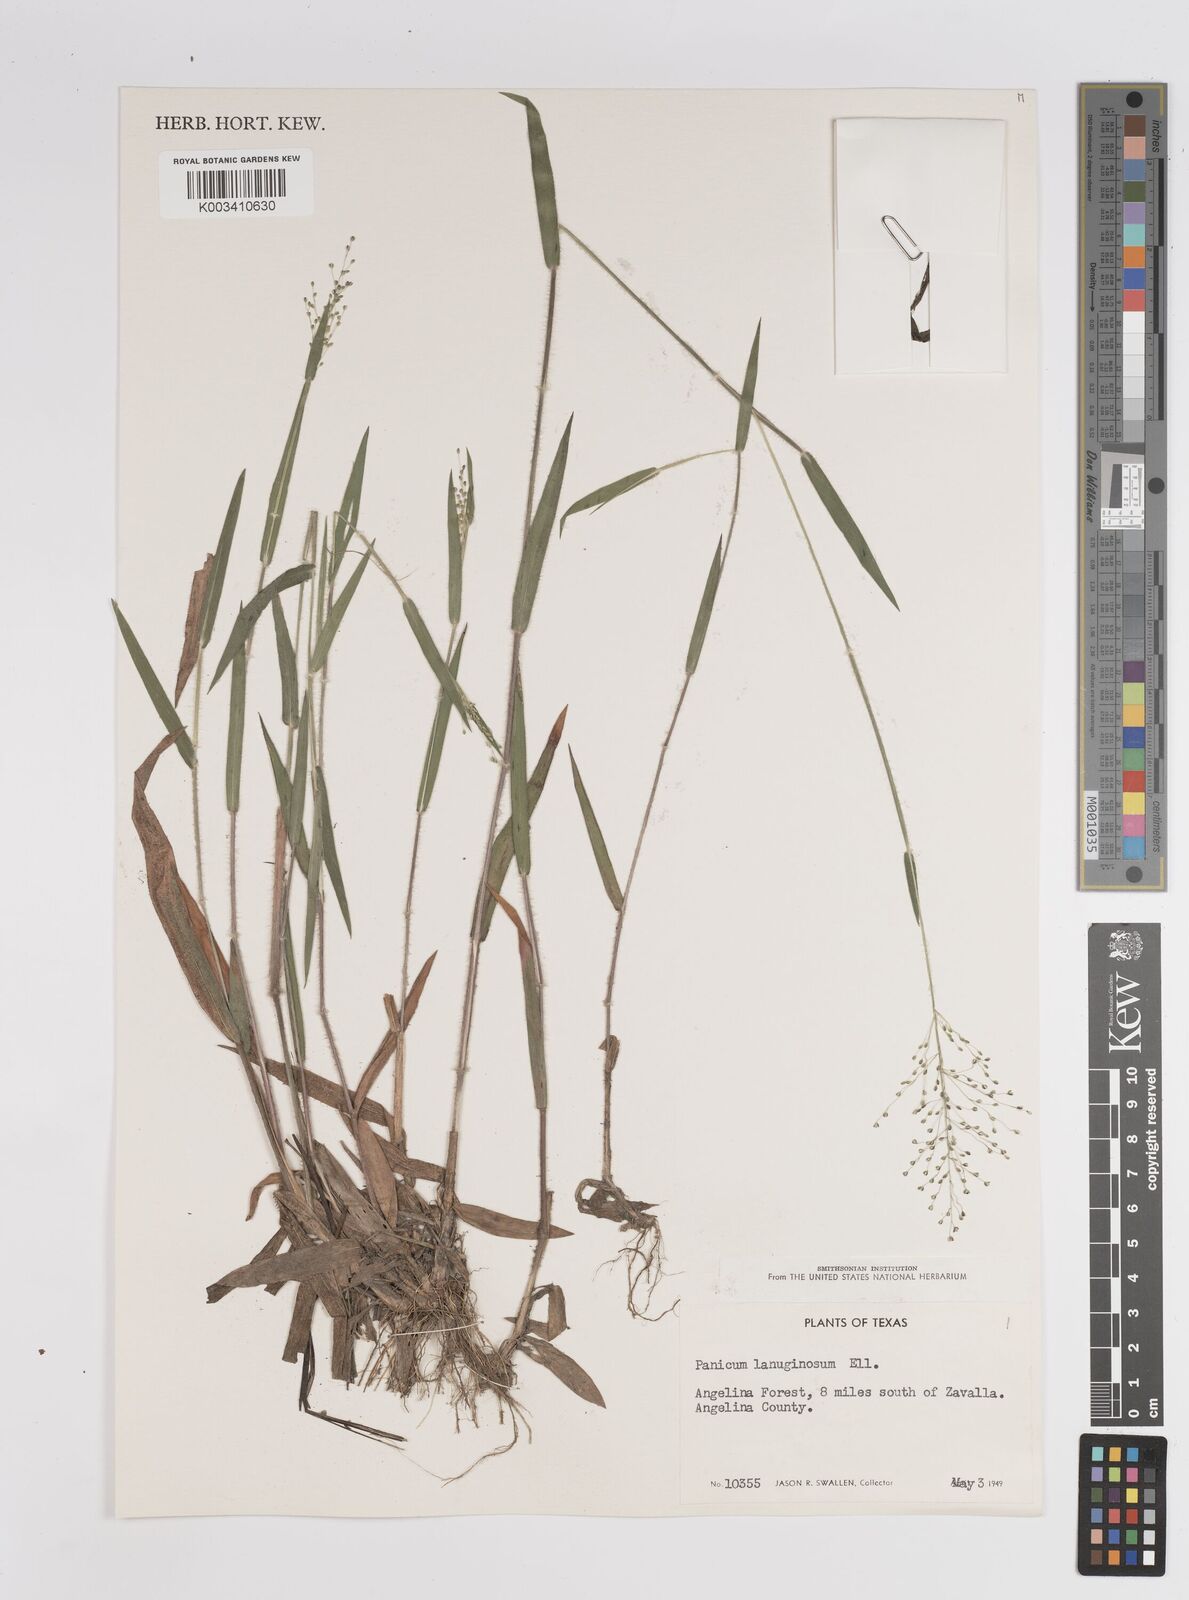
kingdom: Plantae
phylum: Tracheophyta
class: Liliopsida
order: Poales
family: Poaceae
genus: Dichanthelium
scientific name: Dichanthelium lanuginosum
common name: Woolly panicgrass
